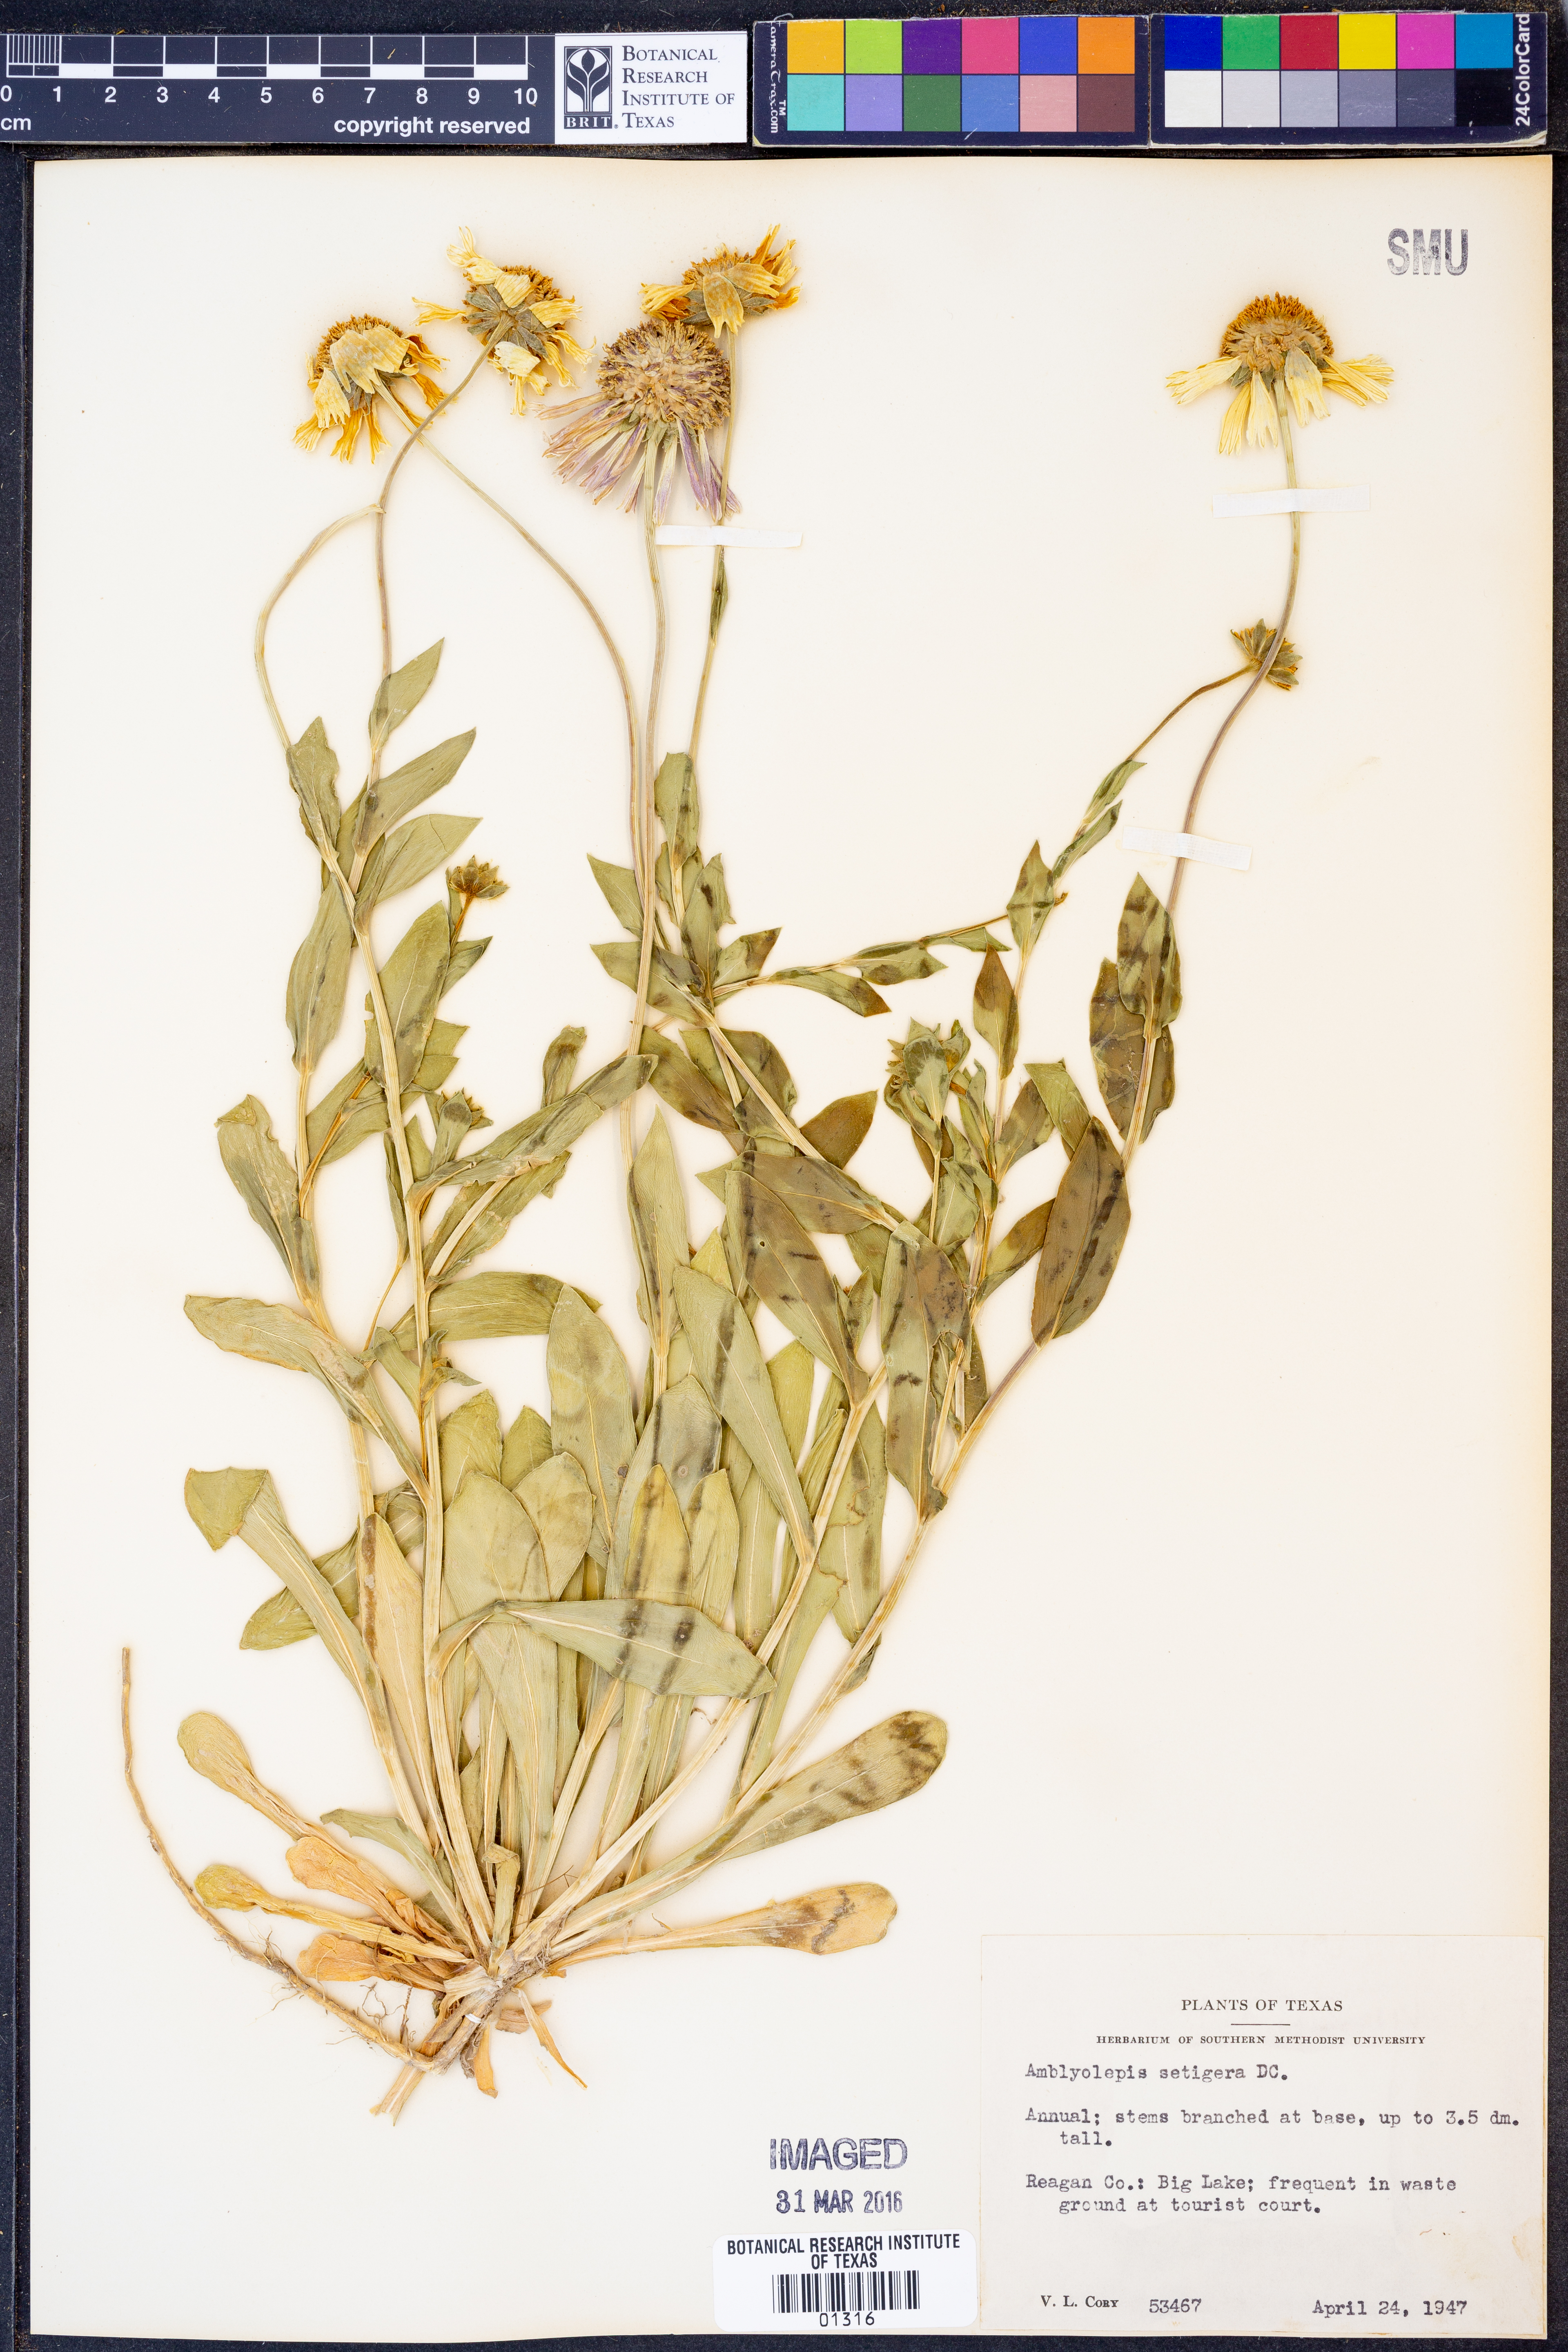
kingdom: Plantae
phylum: Tracheophyta
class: Magnoliopsida
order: Asterales
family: Asteraceae
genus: Amblyolepis
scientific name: Amblyolepis setigera
